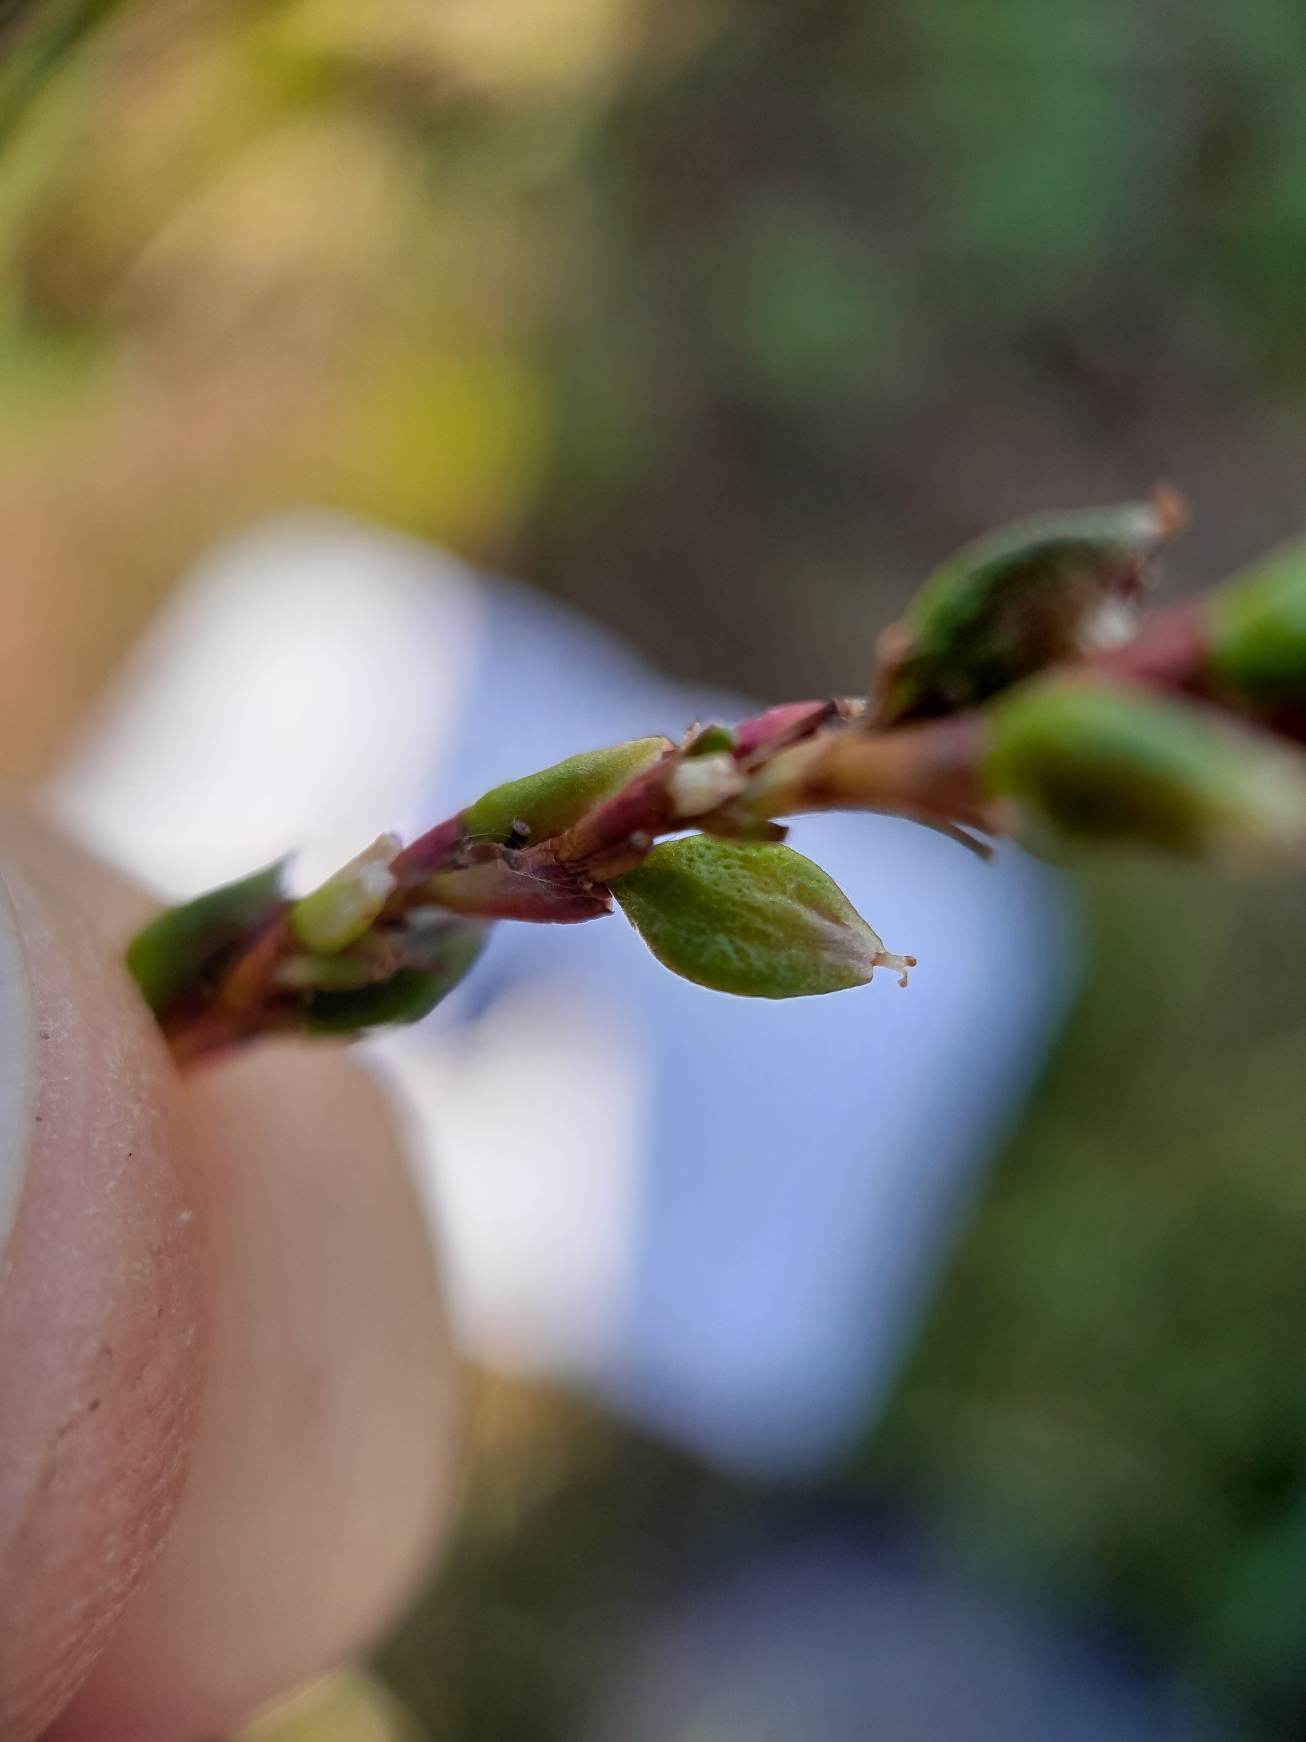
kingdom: Plantae
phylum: Tracheophyta
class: Magnoliopsida
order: Caryophyllales
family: Polygonaceae
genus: Persicaria
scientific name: Persicaria hydropiper
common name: Bidende pileurt
